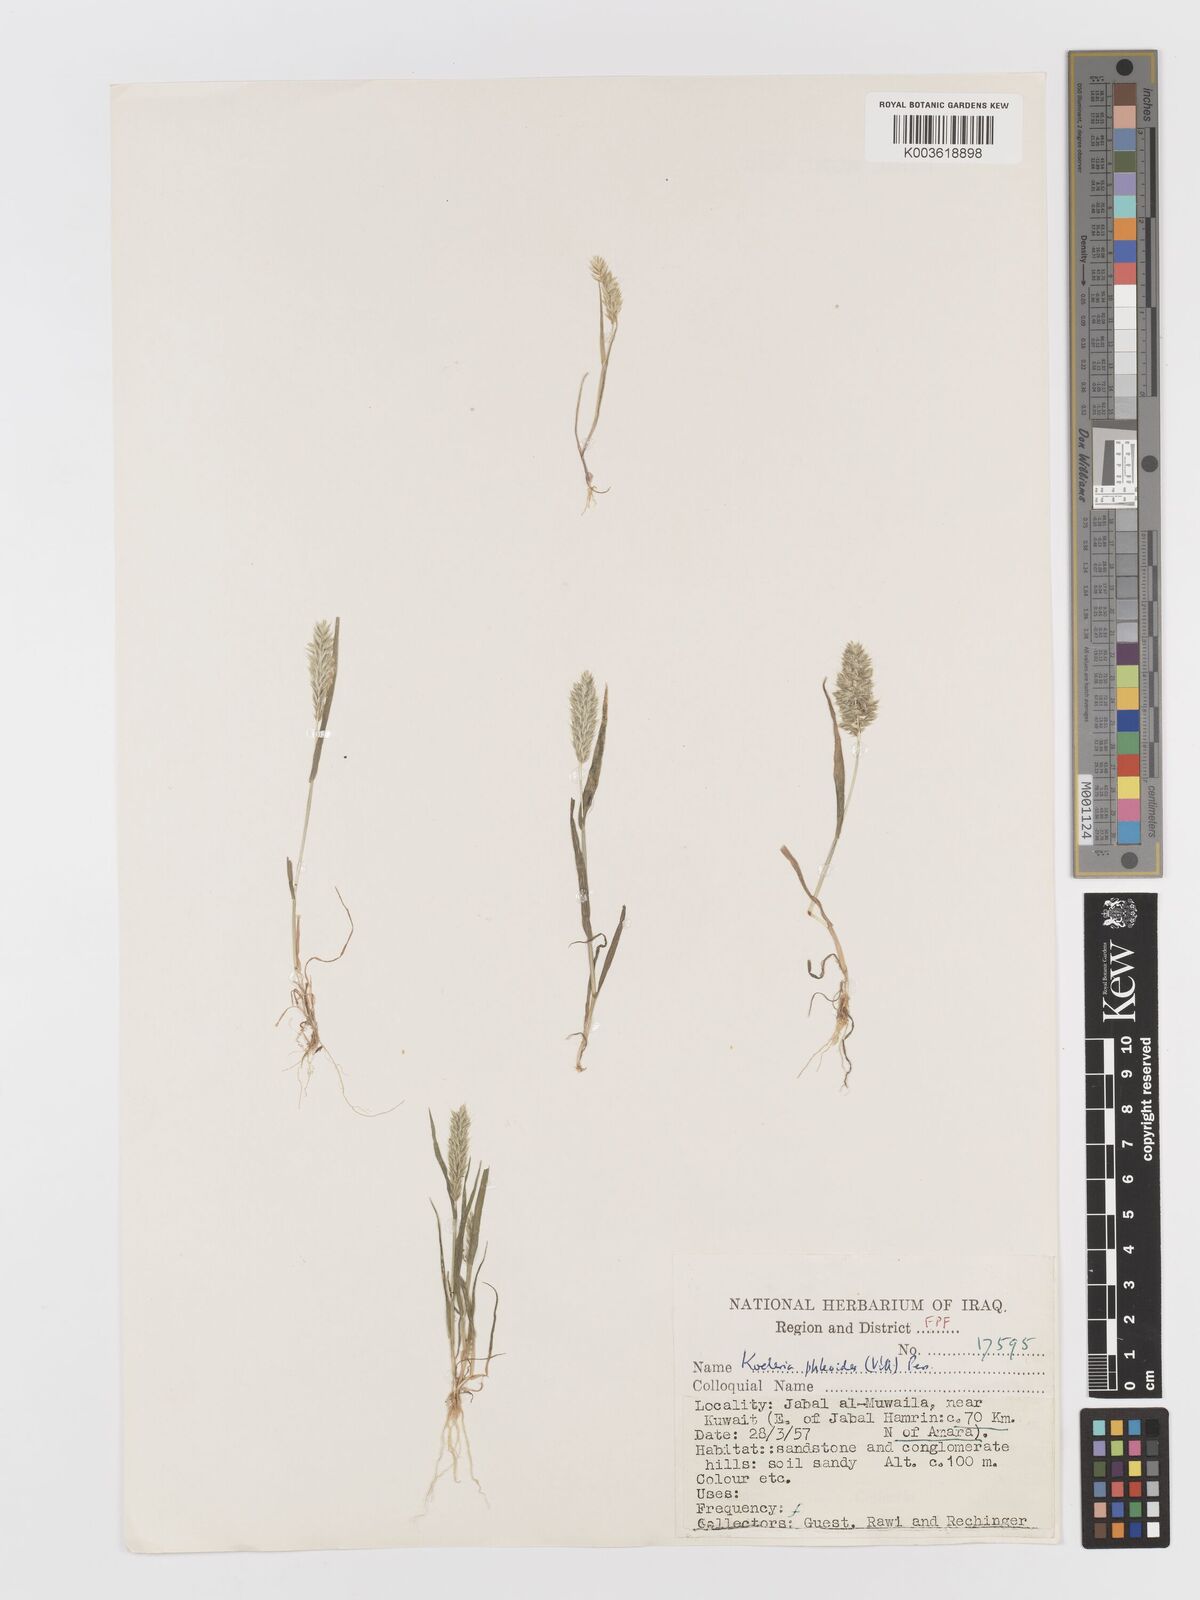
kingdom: Plantae
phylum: Tracheophyta
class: Liliopsida
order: Poales
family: Poaceae
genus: Rostraria
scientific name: Rostraria cristata
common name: Mediterranean hair-grass
